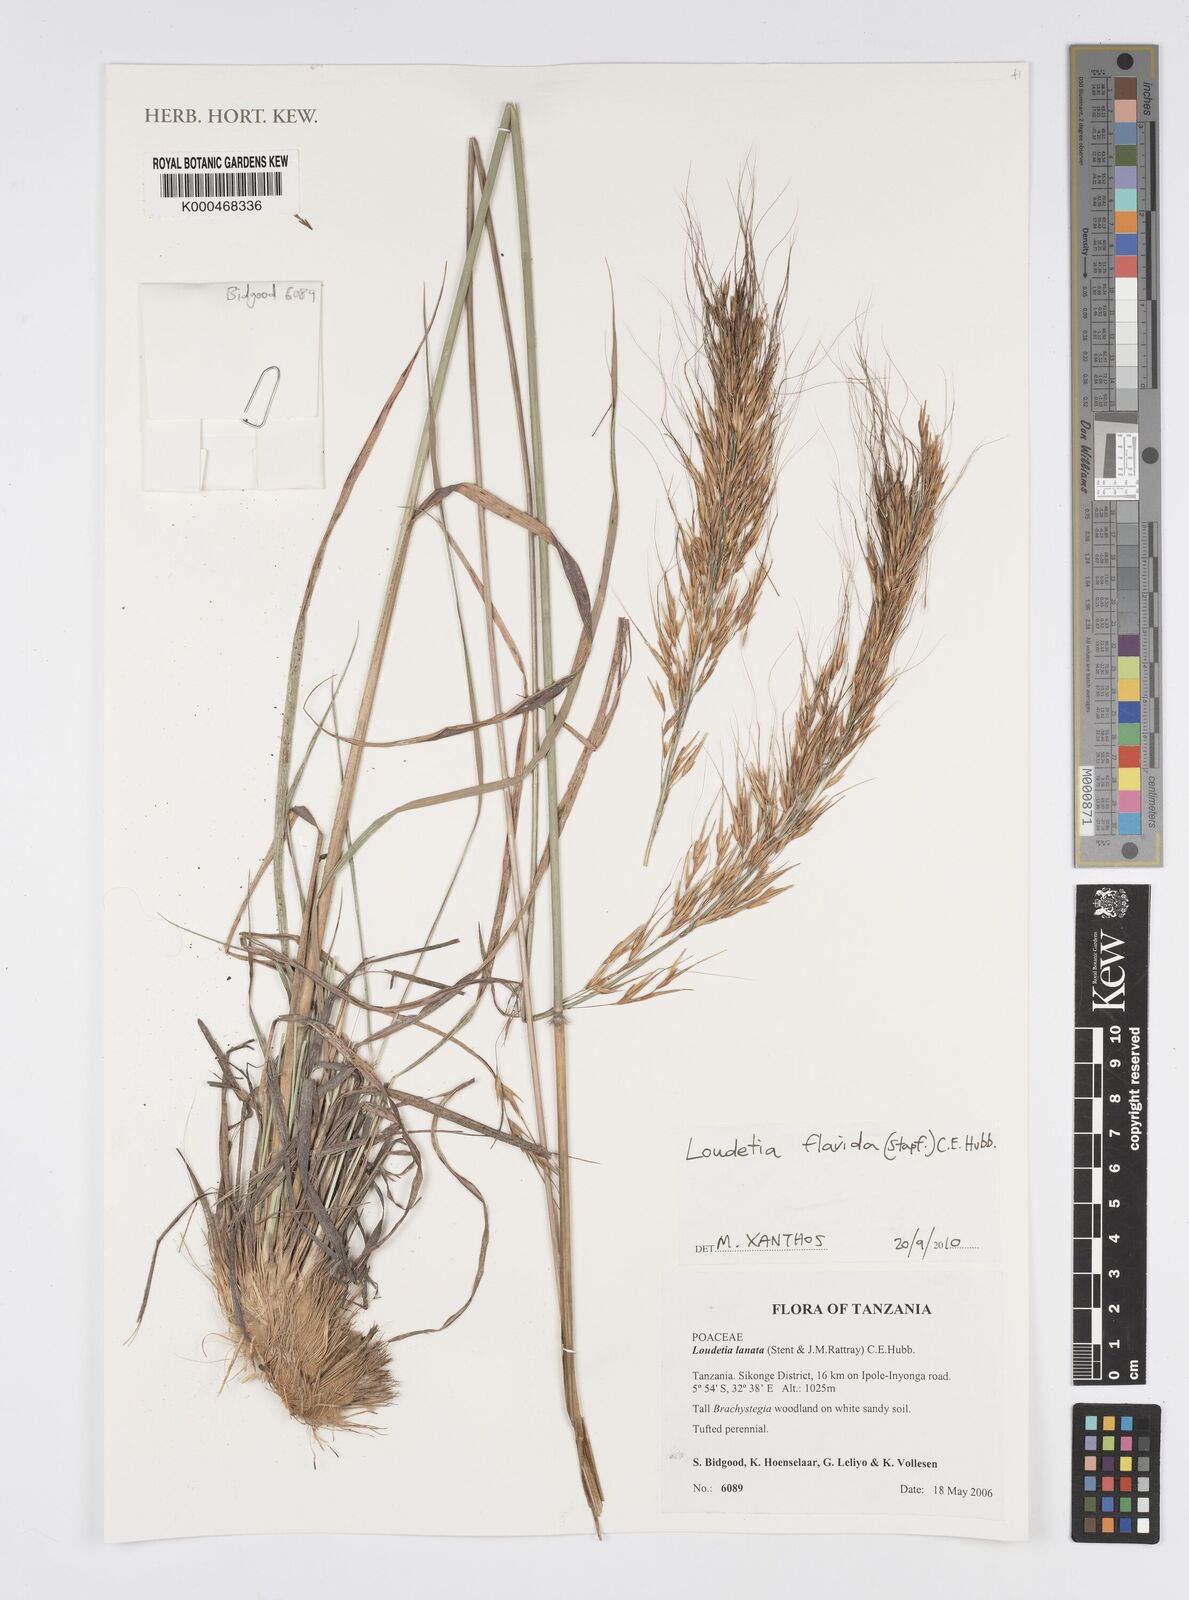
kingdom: Plantae
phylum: Tracheophyta
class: Liliopsida
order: Poales
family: Poaceae
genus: Loudetia
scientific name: Loudetia lanata
